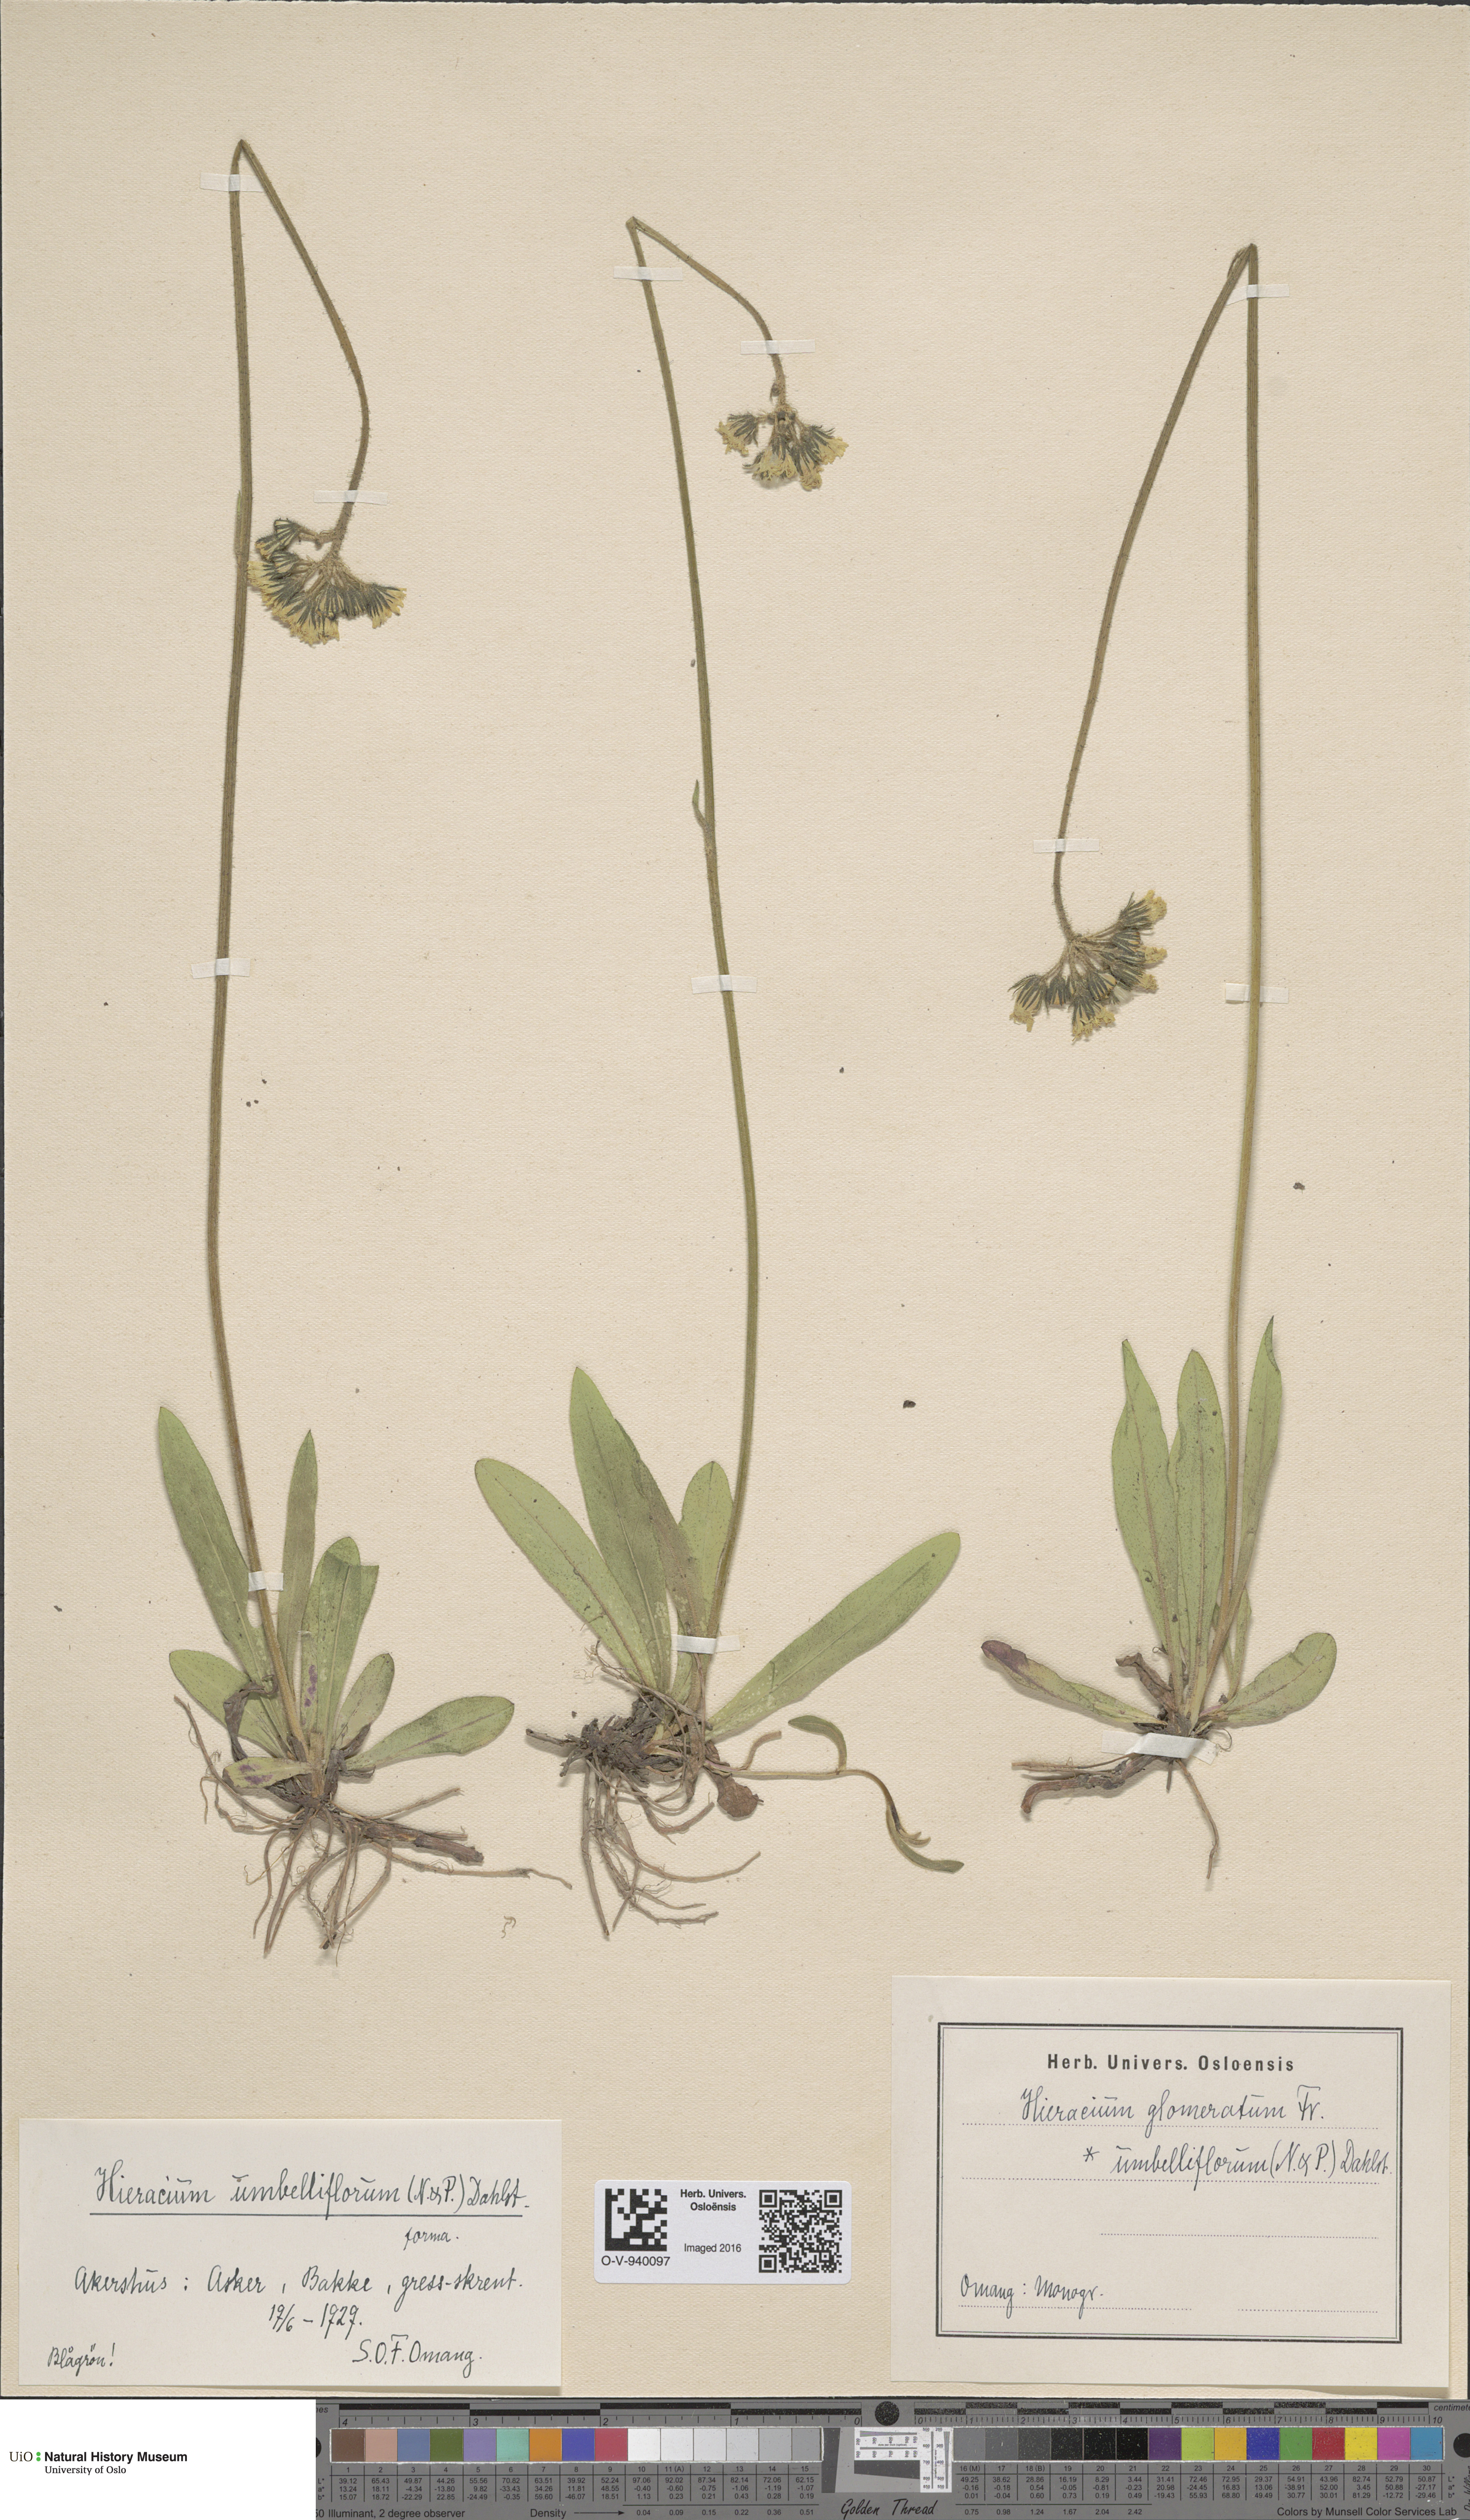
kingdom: Plantae
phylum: Tracheophyta
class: Magnoliopsida
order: Asterales
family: Asteraceae
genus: Pilosella
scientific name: Pilosella glomerata
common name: Queen devil hawkweed
